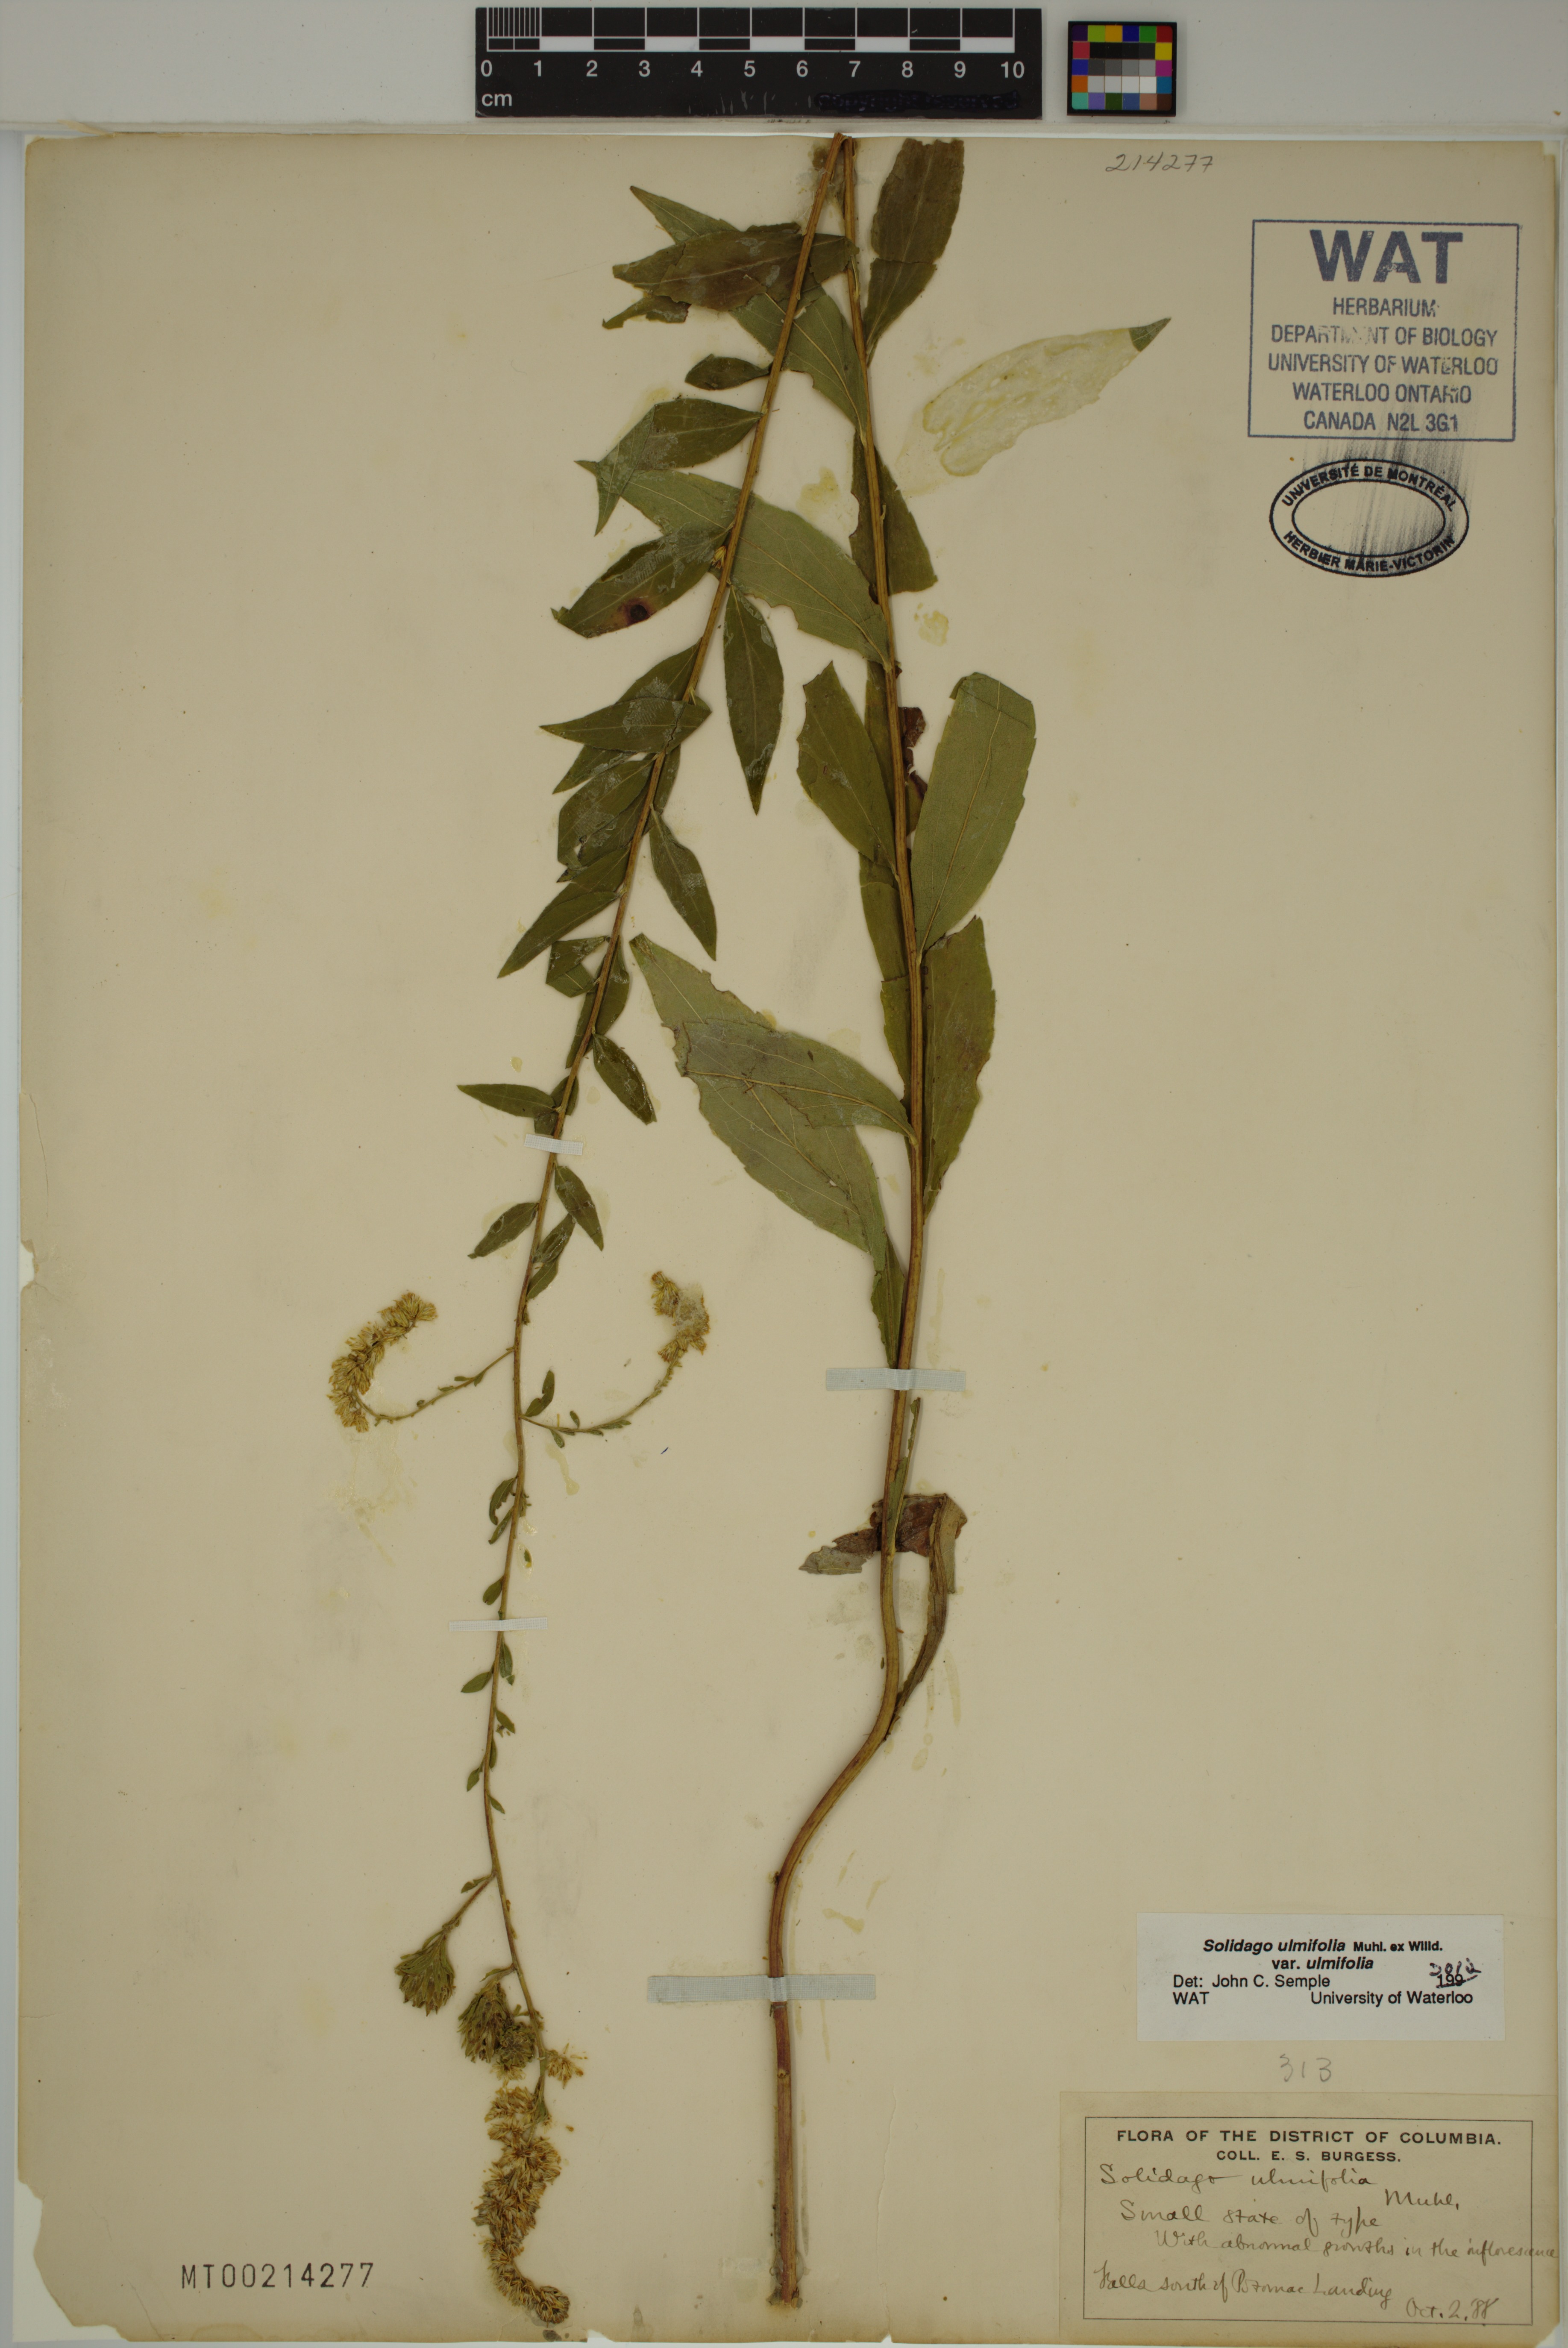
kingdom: Plantae
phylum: Tracheophyta
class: Magnoliopsida
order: Asterales
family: Asteraceae
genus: Solidago
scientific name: Solidago ulmifolia
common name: Elm-leaf goldenrod
